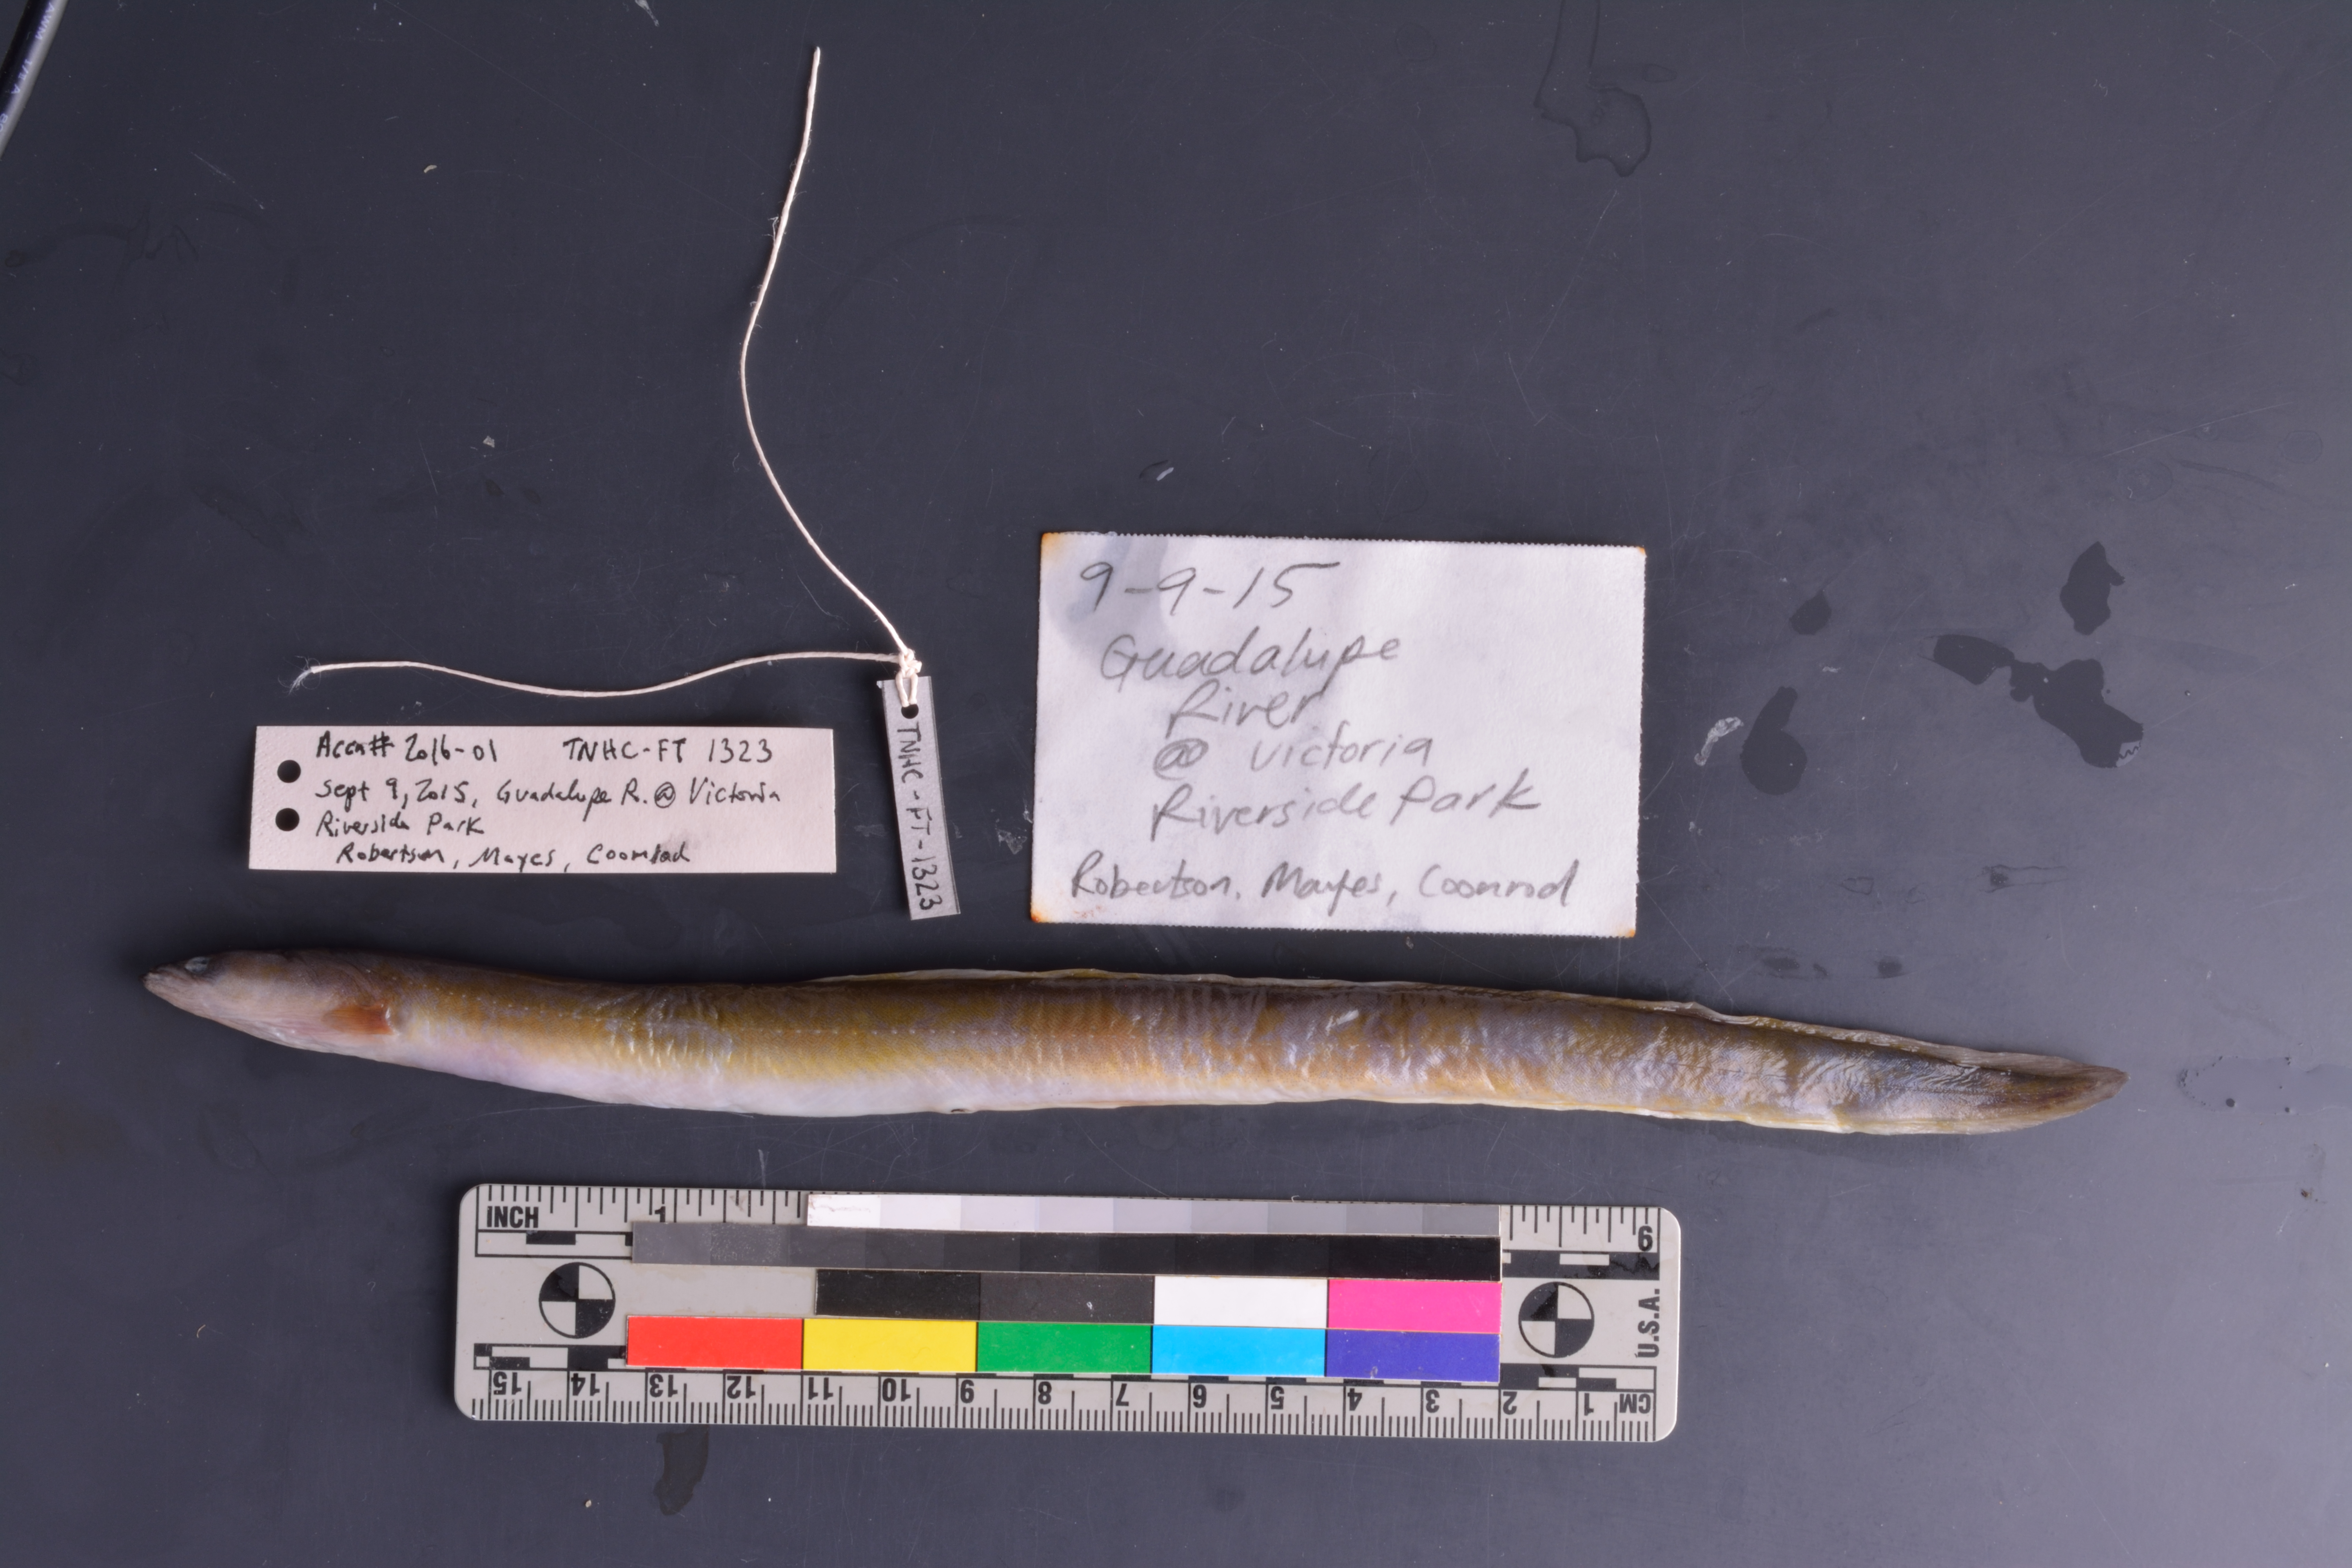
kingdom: Animalia
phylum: Chordata
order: Anguilliformes
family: Anguillidae
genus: Anguilla
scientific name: Anguilla rostrata
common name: American eel
